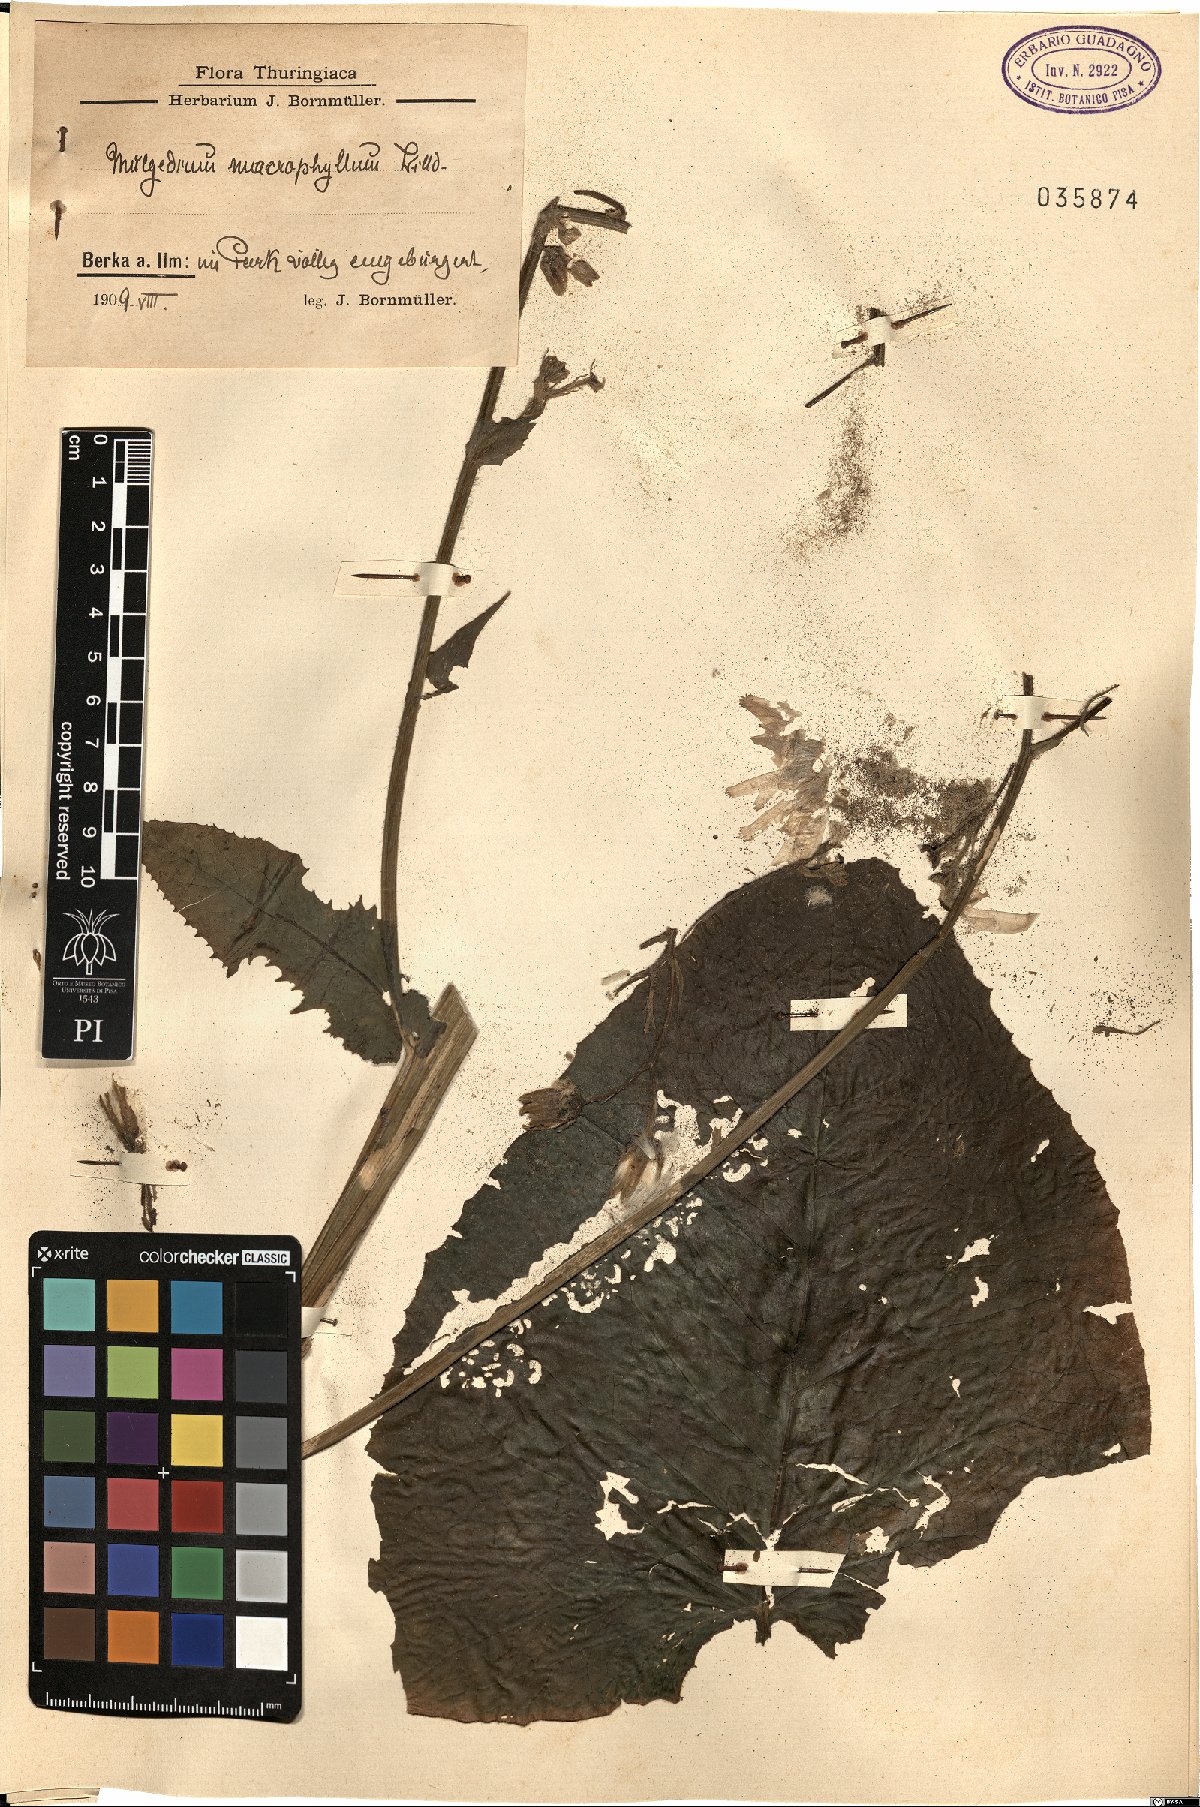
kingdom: Plantae
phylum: Tracheophyta
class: Magnoliopsida
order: Asterales
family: Asteraceae
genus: Lactuca
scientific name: Lactuca macrophylla
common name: Common blue-sow-thistle
